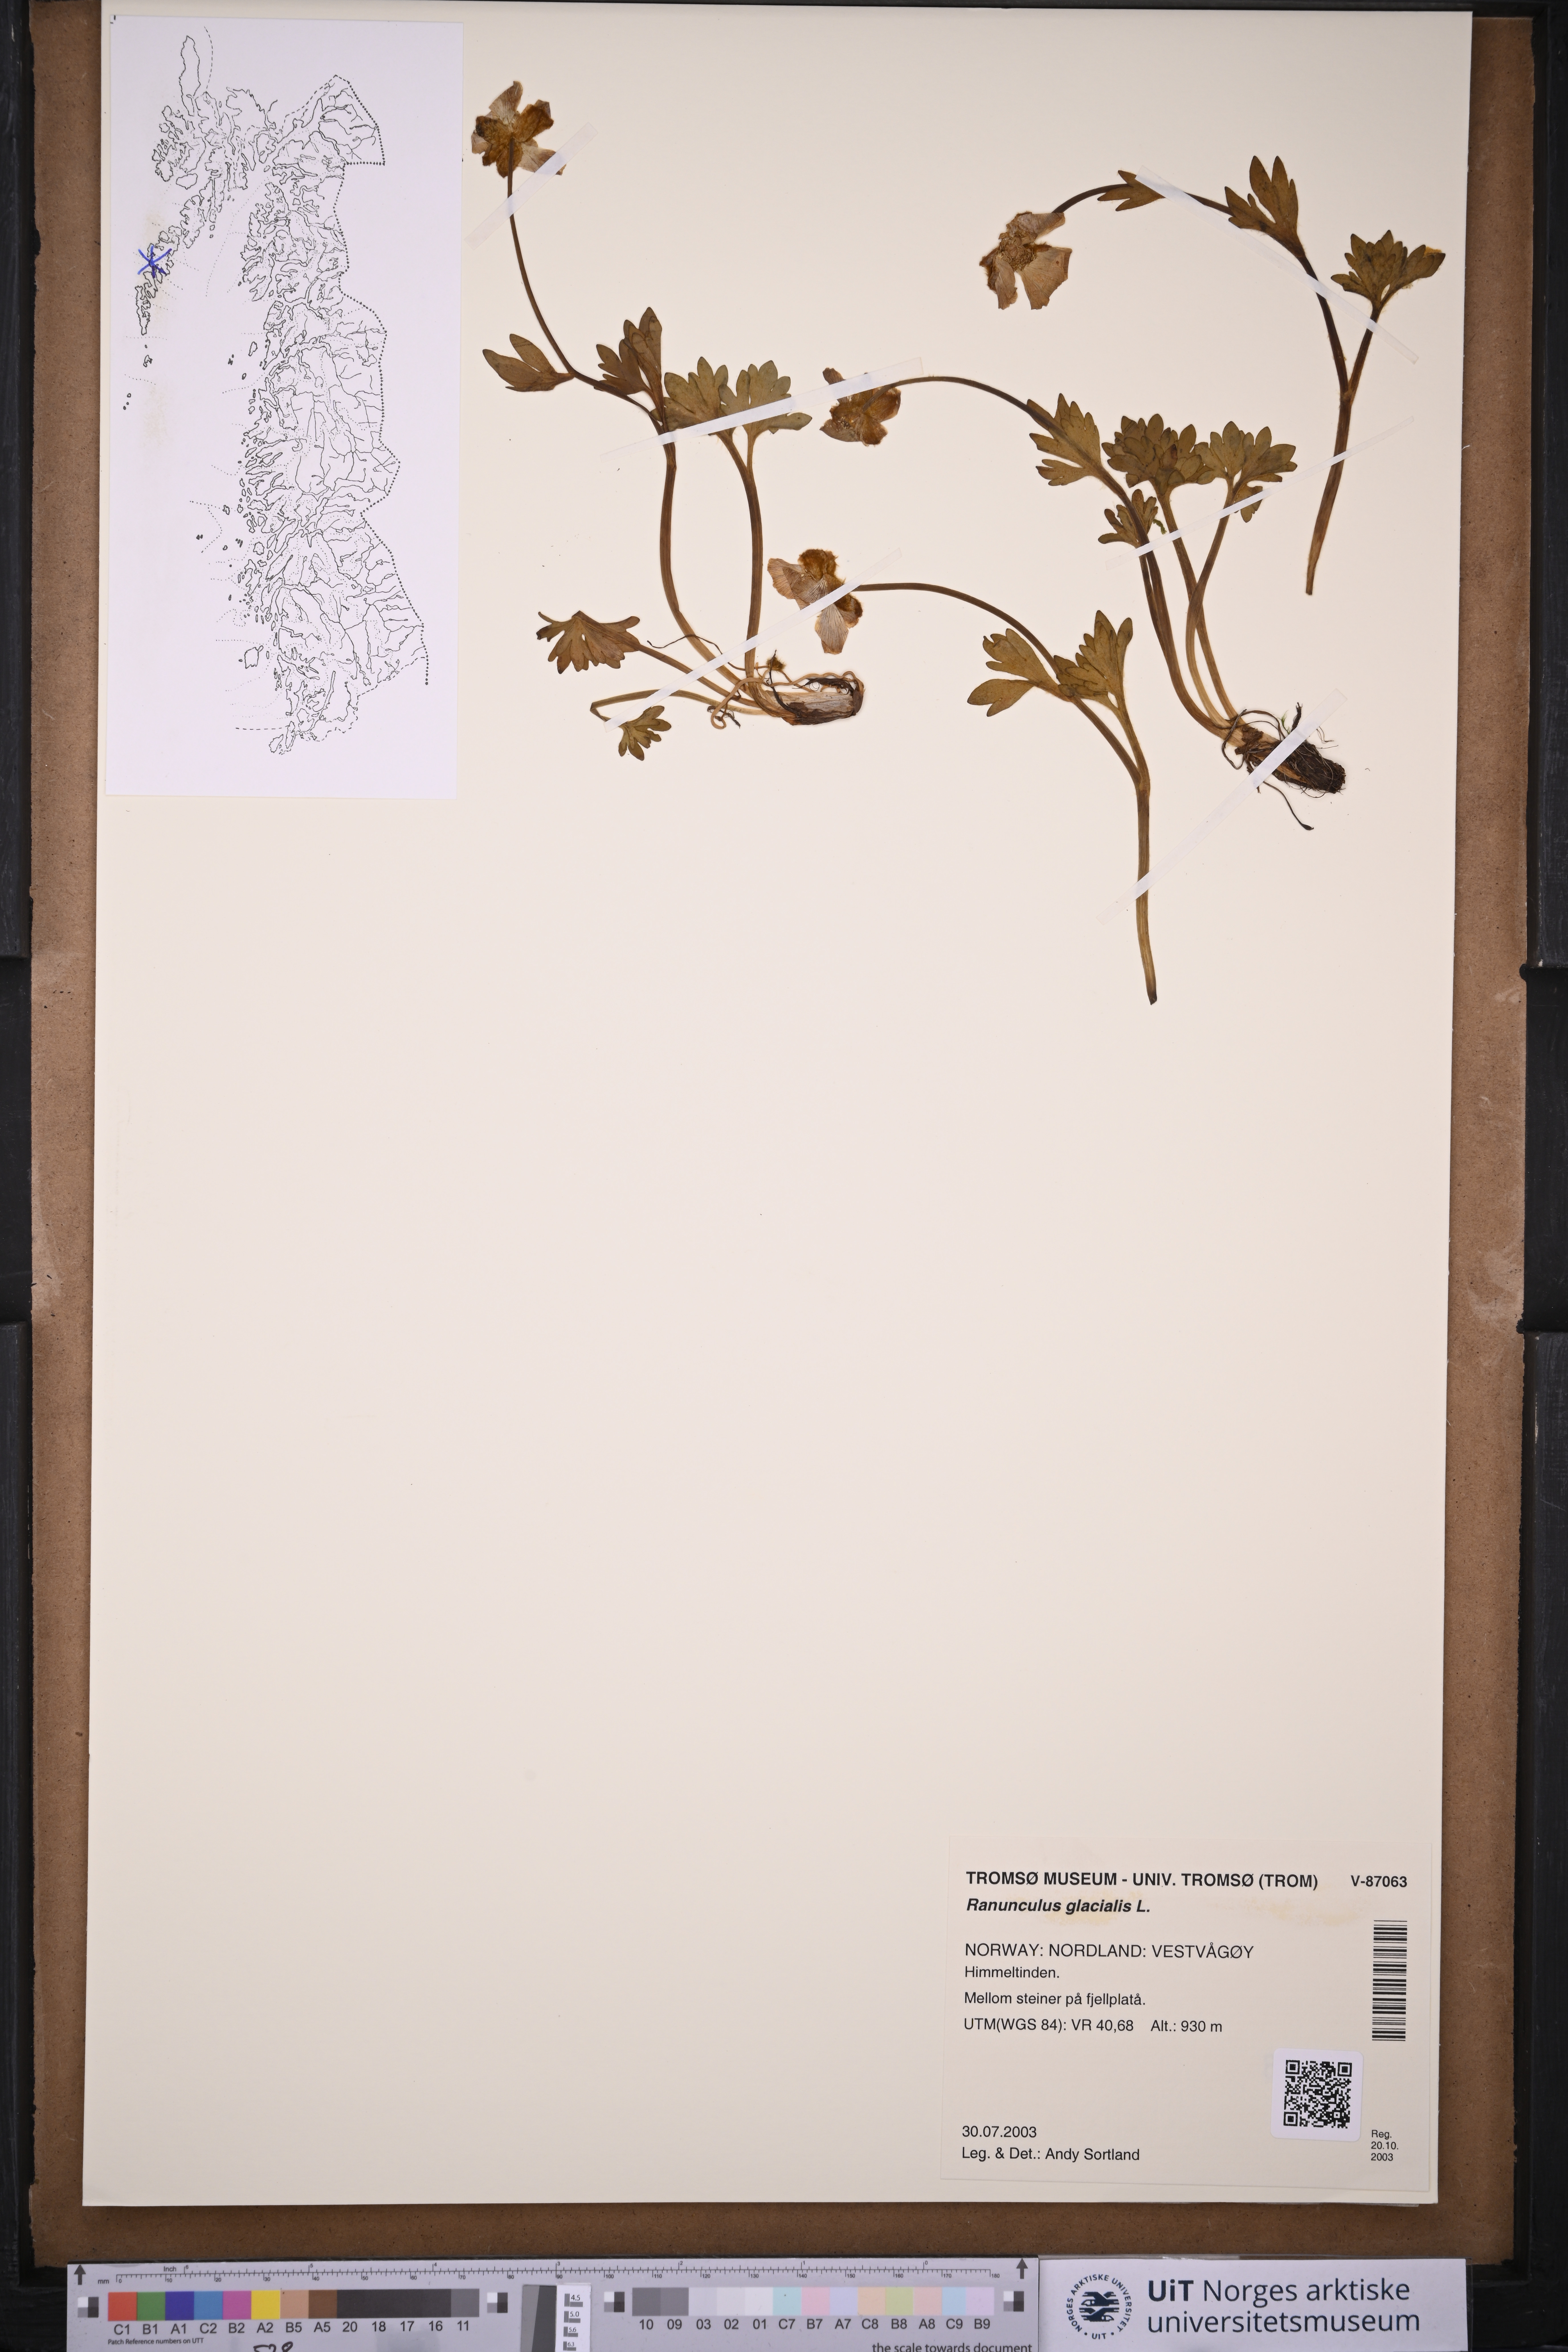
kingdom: Plantae
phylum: Tracheophyta
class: Magnoliopsida
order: Ranunculales
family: Ranunculaceae
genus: Ranunculus
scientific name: Ranunculus glacialis
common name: Glacier buttercup
